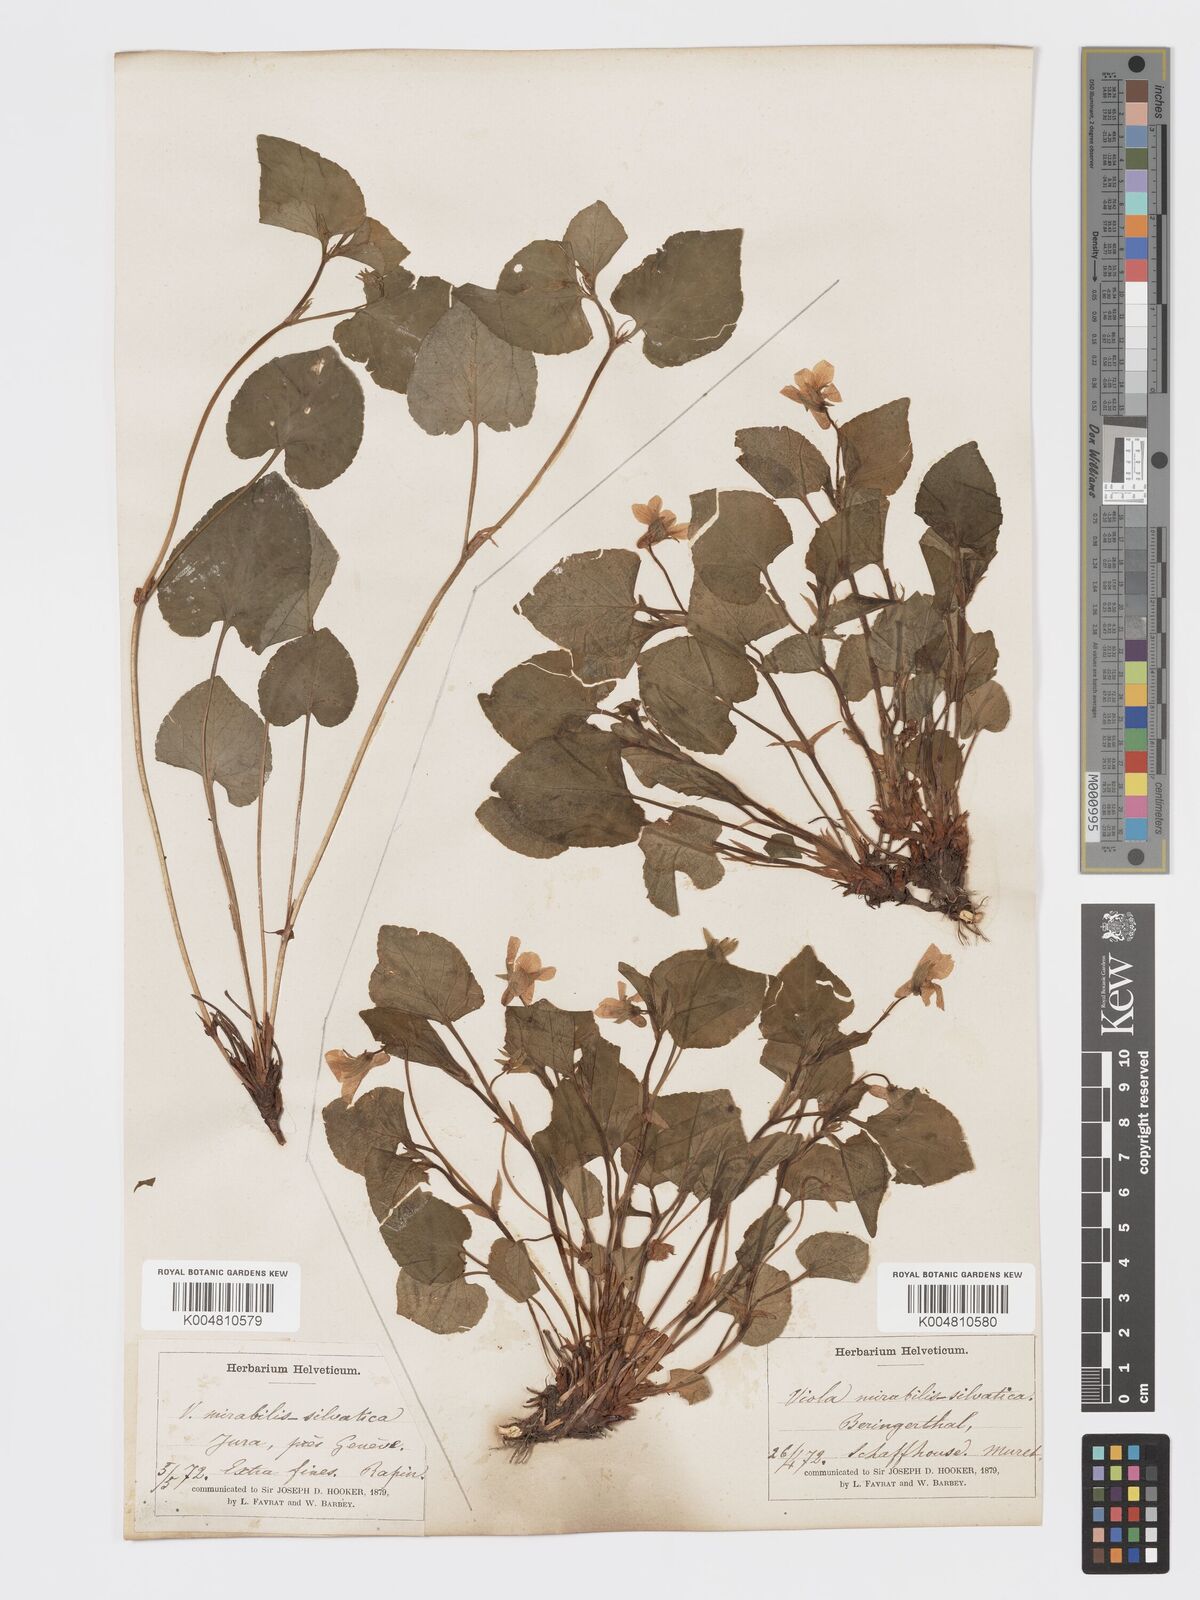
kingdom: Plantae
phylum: Tracheophyta
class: Magnoliopsida
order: Malpighiales
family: Violaceae
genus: Viola
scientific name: Viola mirabilis
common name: Wonder violet
